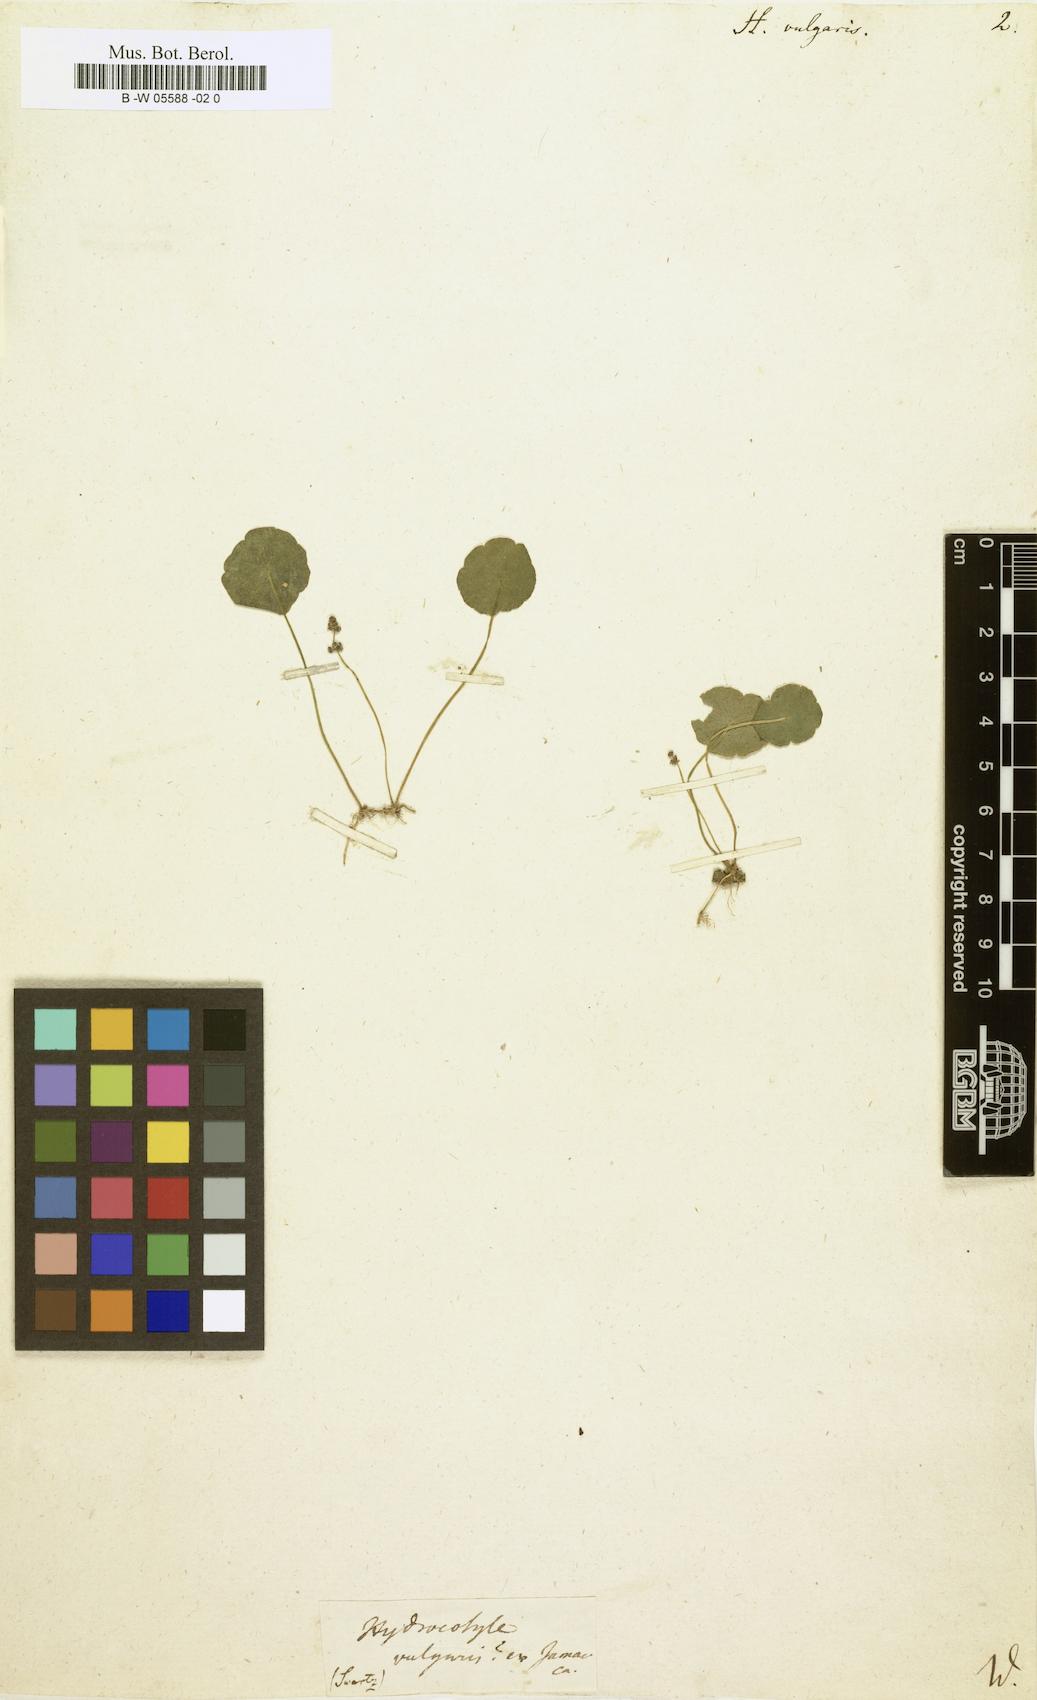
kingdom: Plantae
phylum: Tracheophyta
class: Magnoliopsida
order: Apiales
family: Araliaceae
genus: Hydrocotyle
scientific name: Hydrocotyle vulgaris
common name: Marsh pennywort
